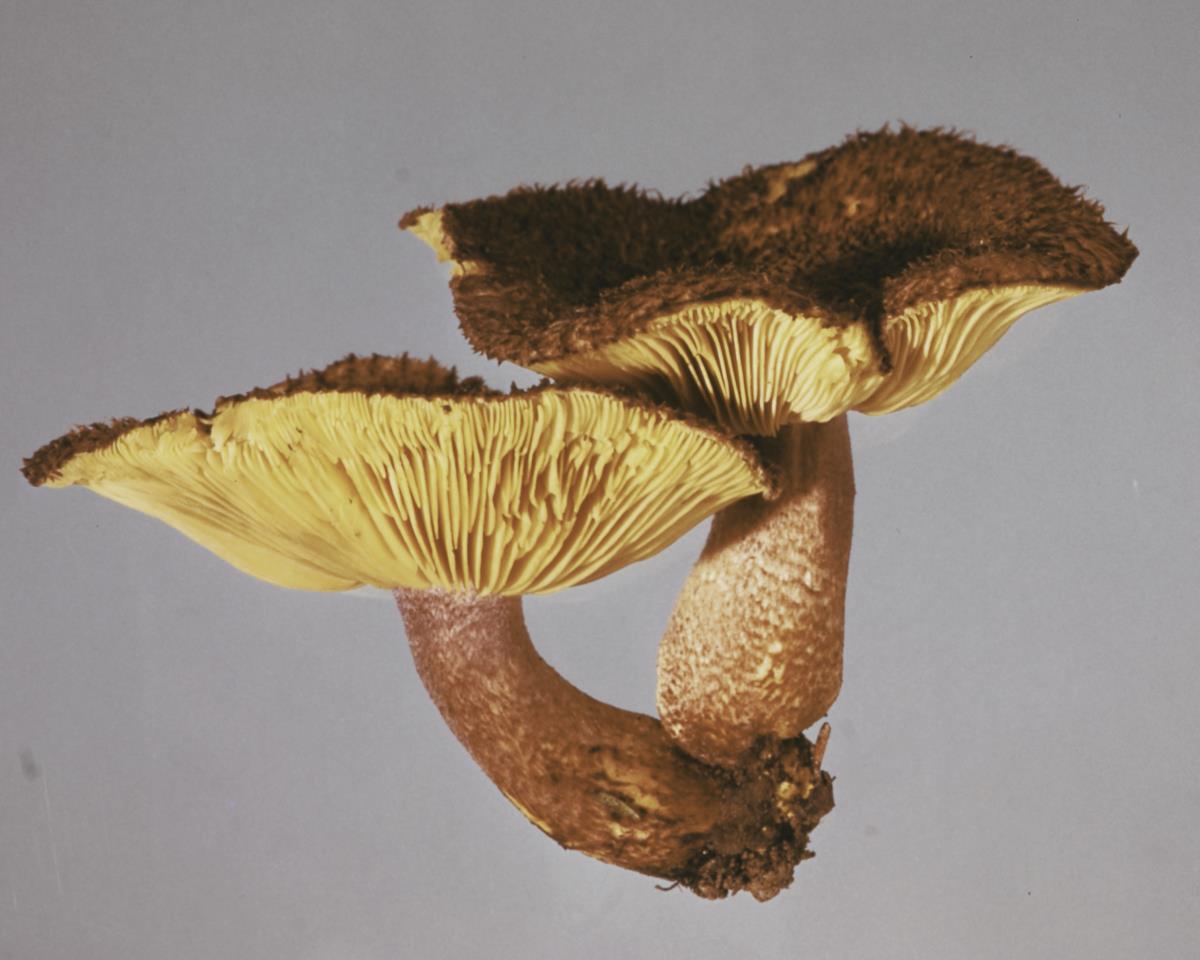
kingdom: Fungi
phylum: Basidiomycota
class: Agaricomycetes
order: Agaricales
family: Tricholomataceae
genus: Tricholomopsis
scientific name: Tricholomopsis scabra
